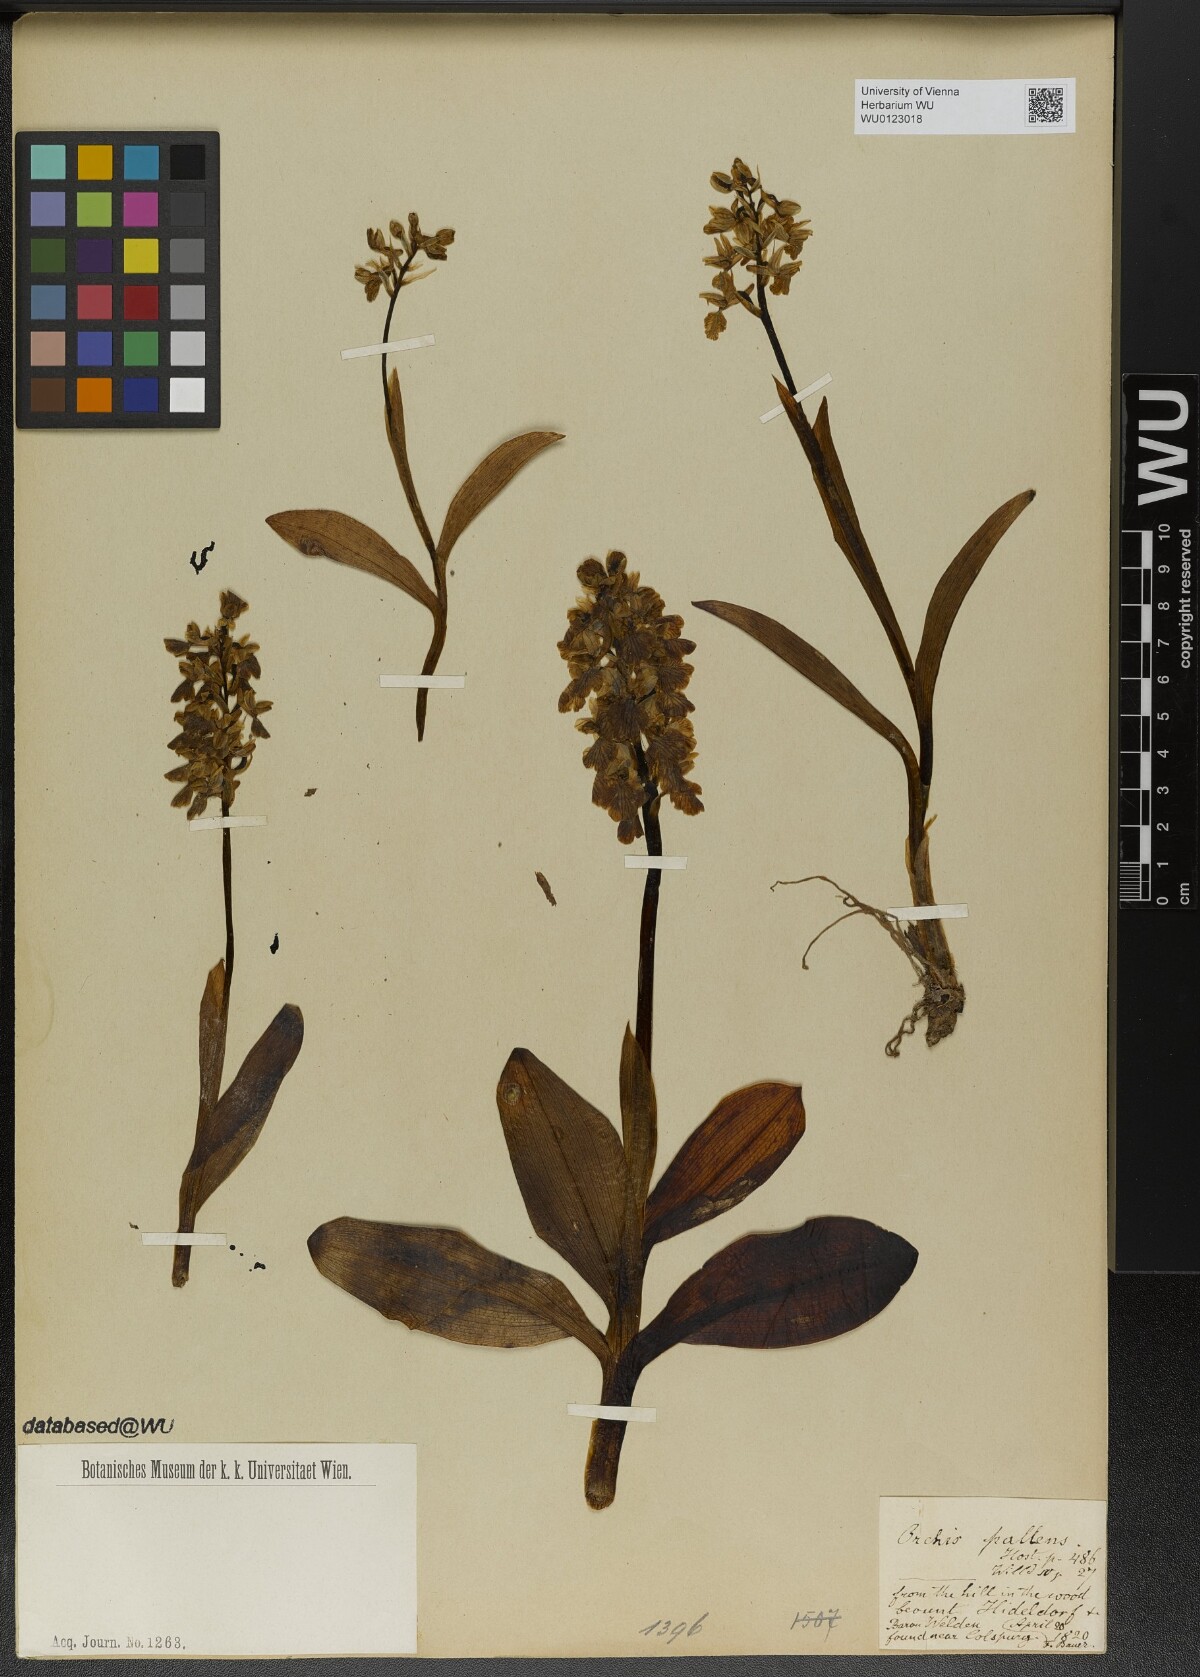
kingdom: Plantae
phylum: Tracheophyta
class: Liliopsida
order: Asparagales
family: Orchidaceae
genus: Orchis
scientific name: Orchis pallens
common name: Pale-flowered orchid
